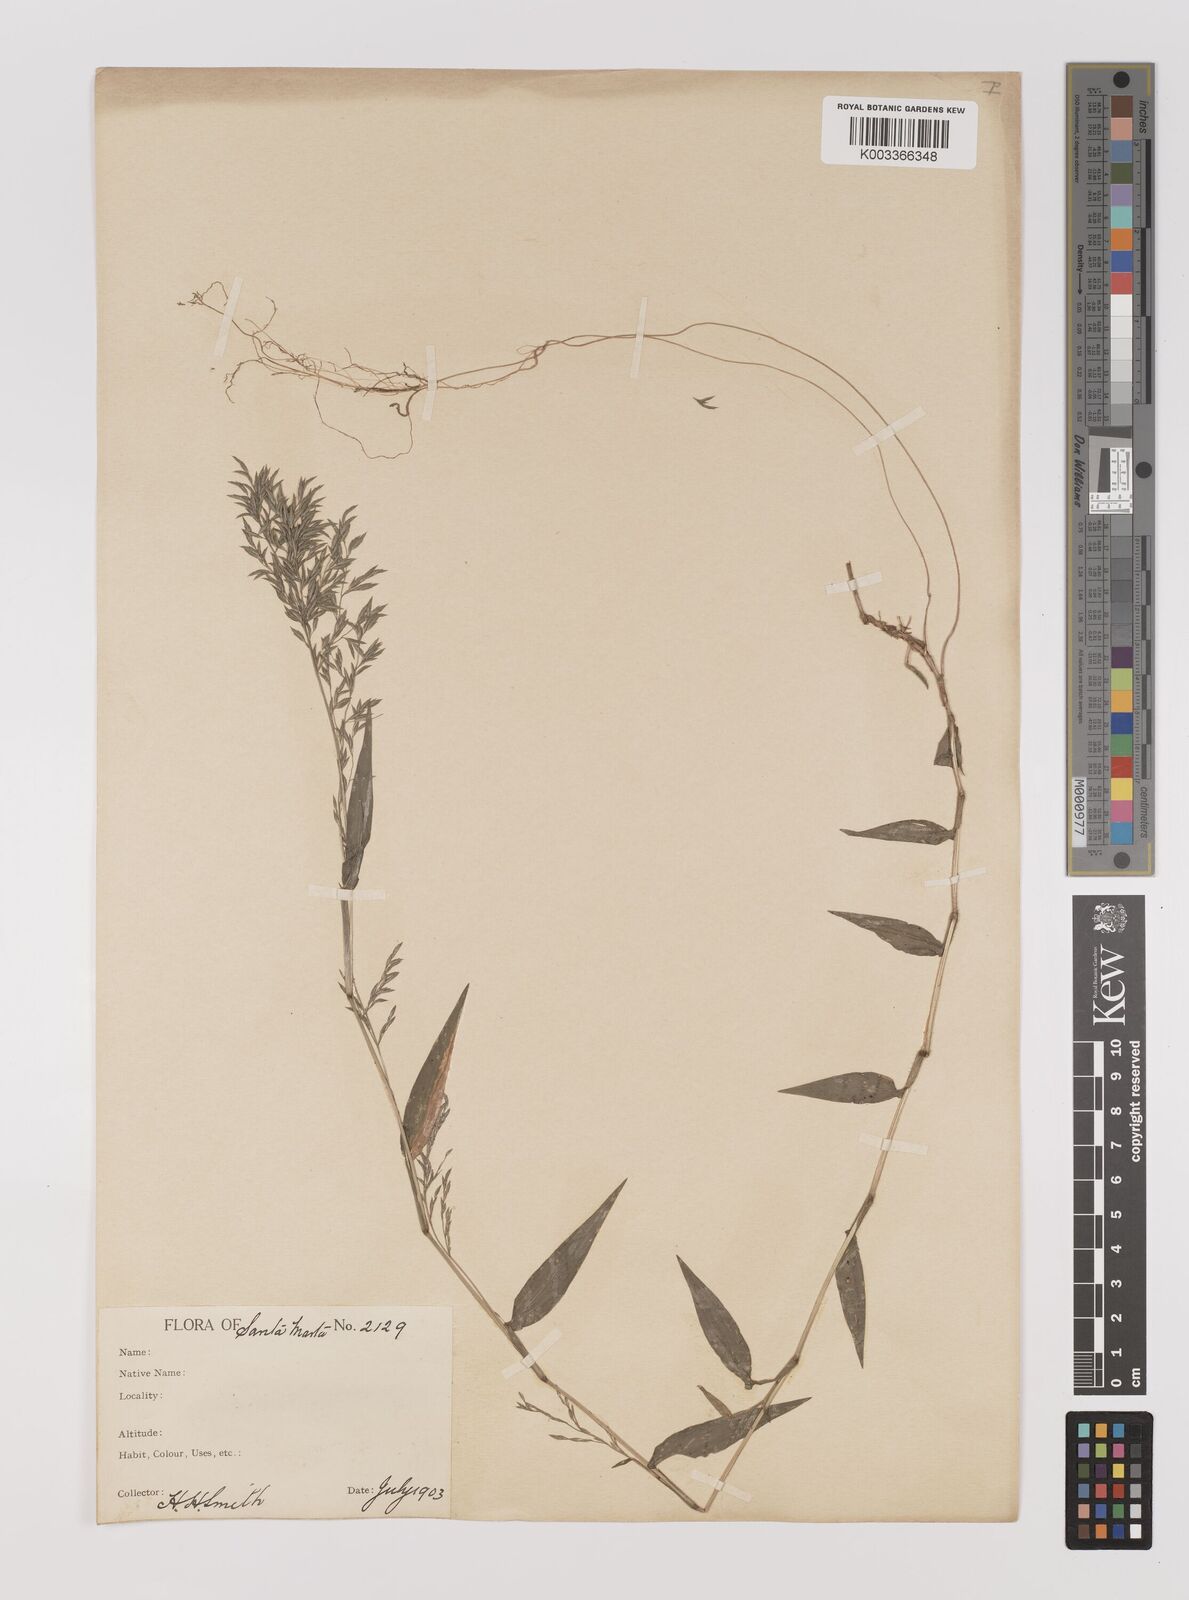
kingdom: Plantae
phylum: Tracheophyta
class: Liliopsida
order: Poales
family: Poaceae
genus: Ichnanthus
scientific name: Ichnanthus tenuis
